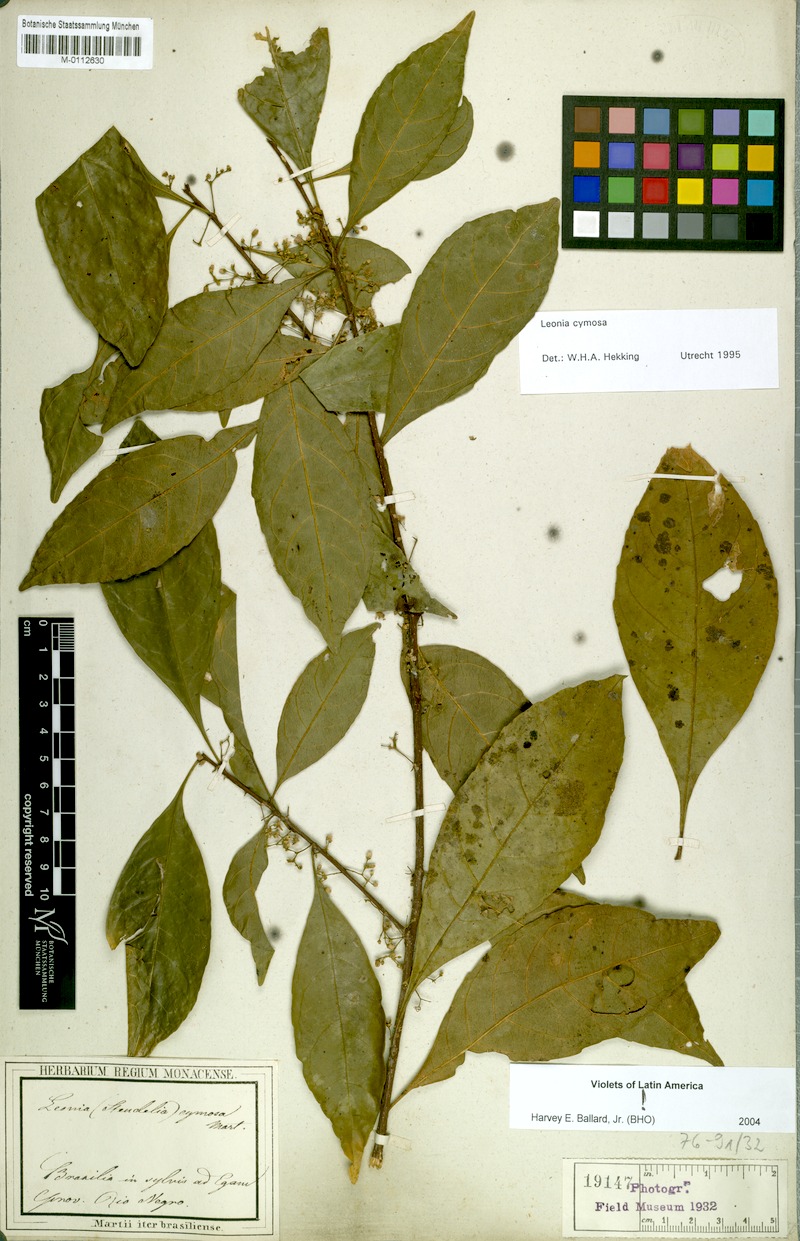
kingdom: Plantae
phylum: Tracheophyta
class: Magnoliopsida
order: Malpighiales
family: Violaceae
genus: Leonia
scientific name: Leonia cymosa
